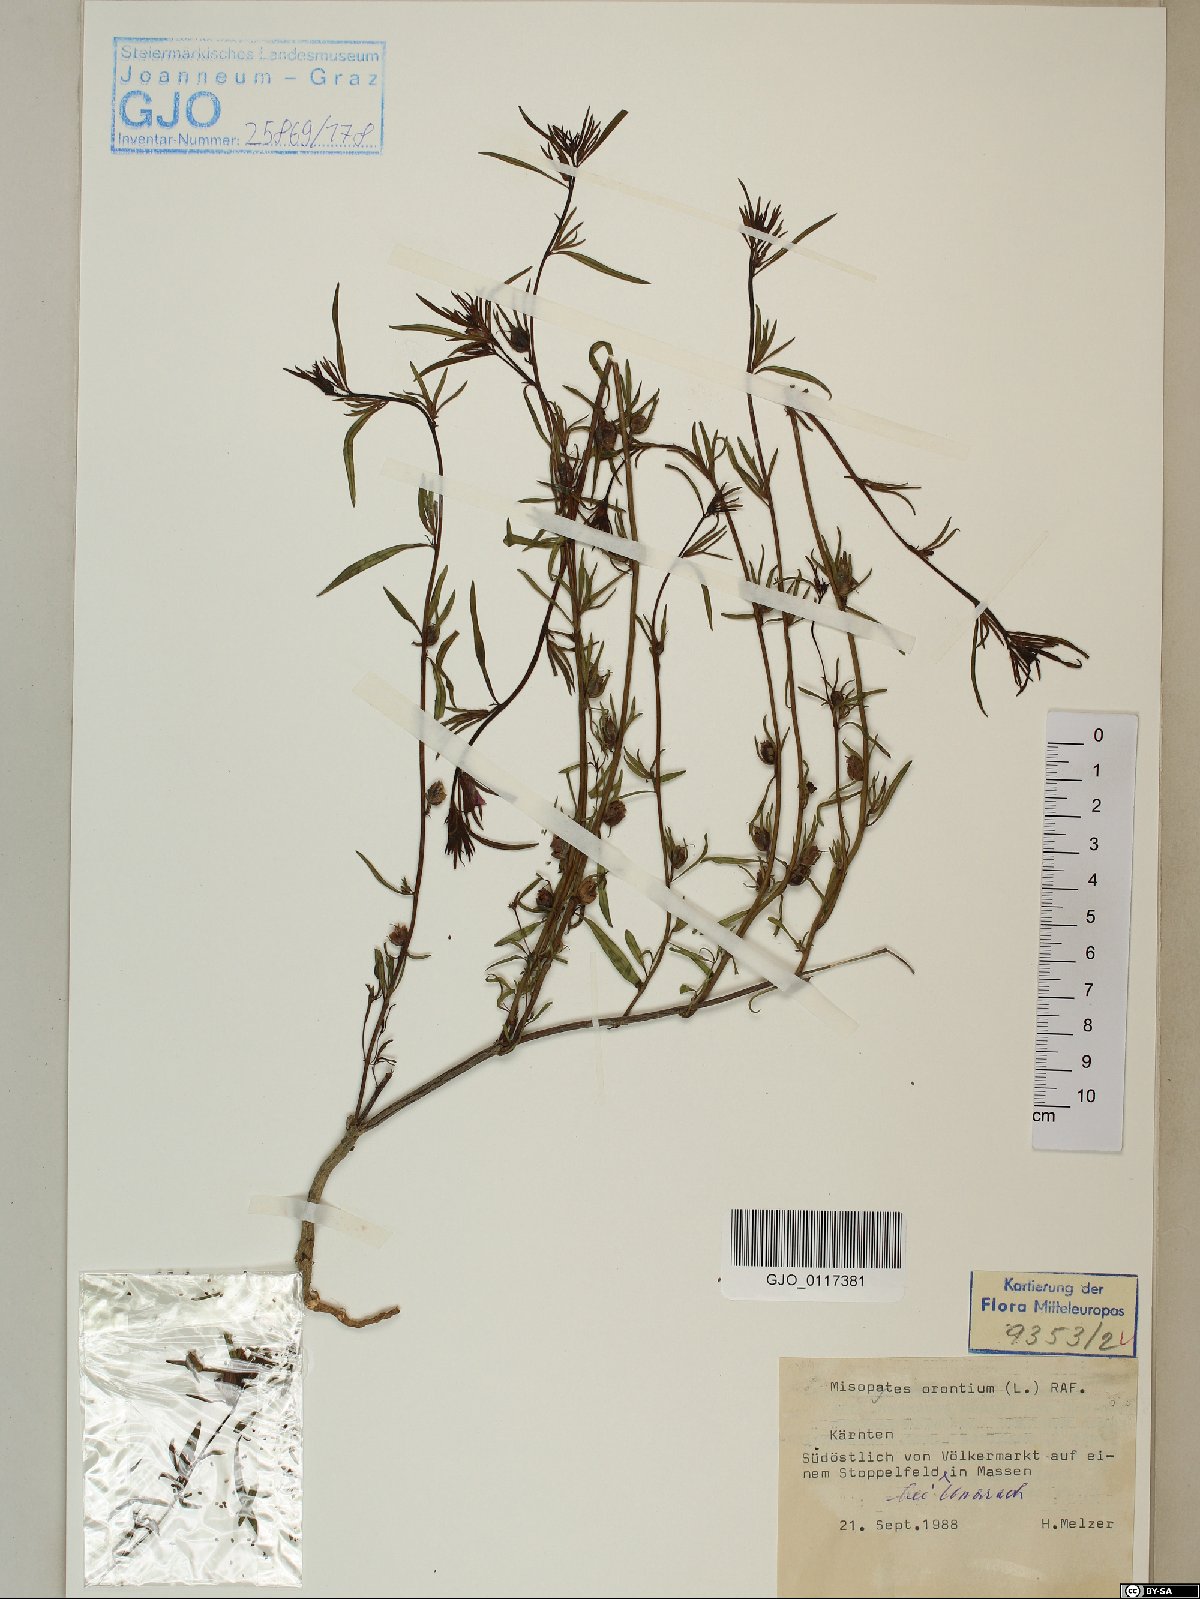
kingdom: Plantae
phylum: Tracheophyta
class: Magnoliopsida
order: Lamiales
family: Plantaginaceae
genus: Misopates
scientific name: Misopates orontium
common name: Weasel's-snout
